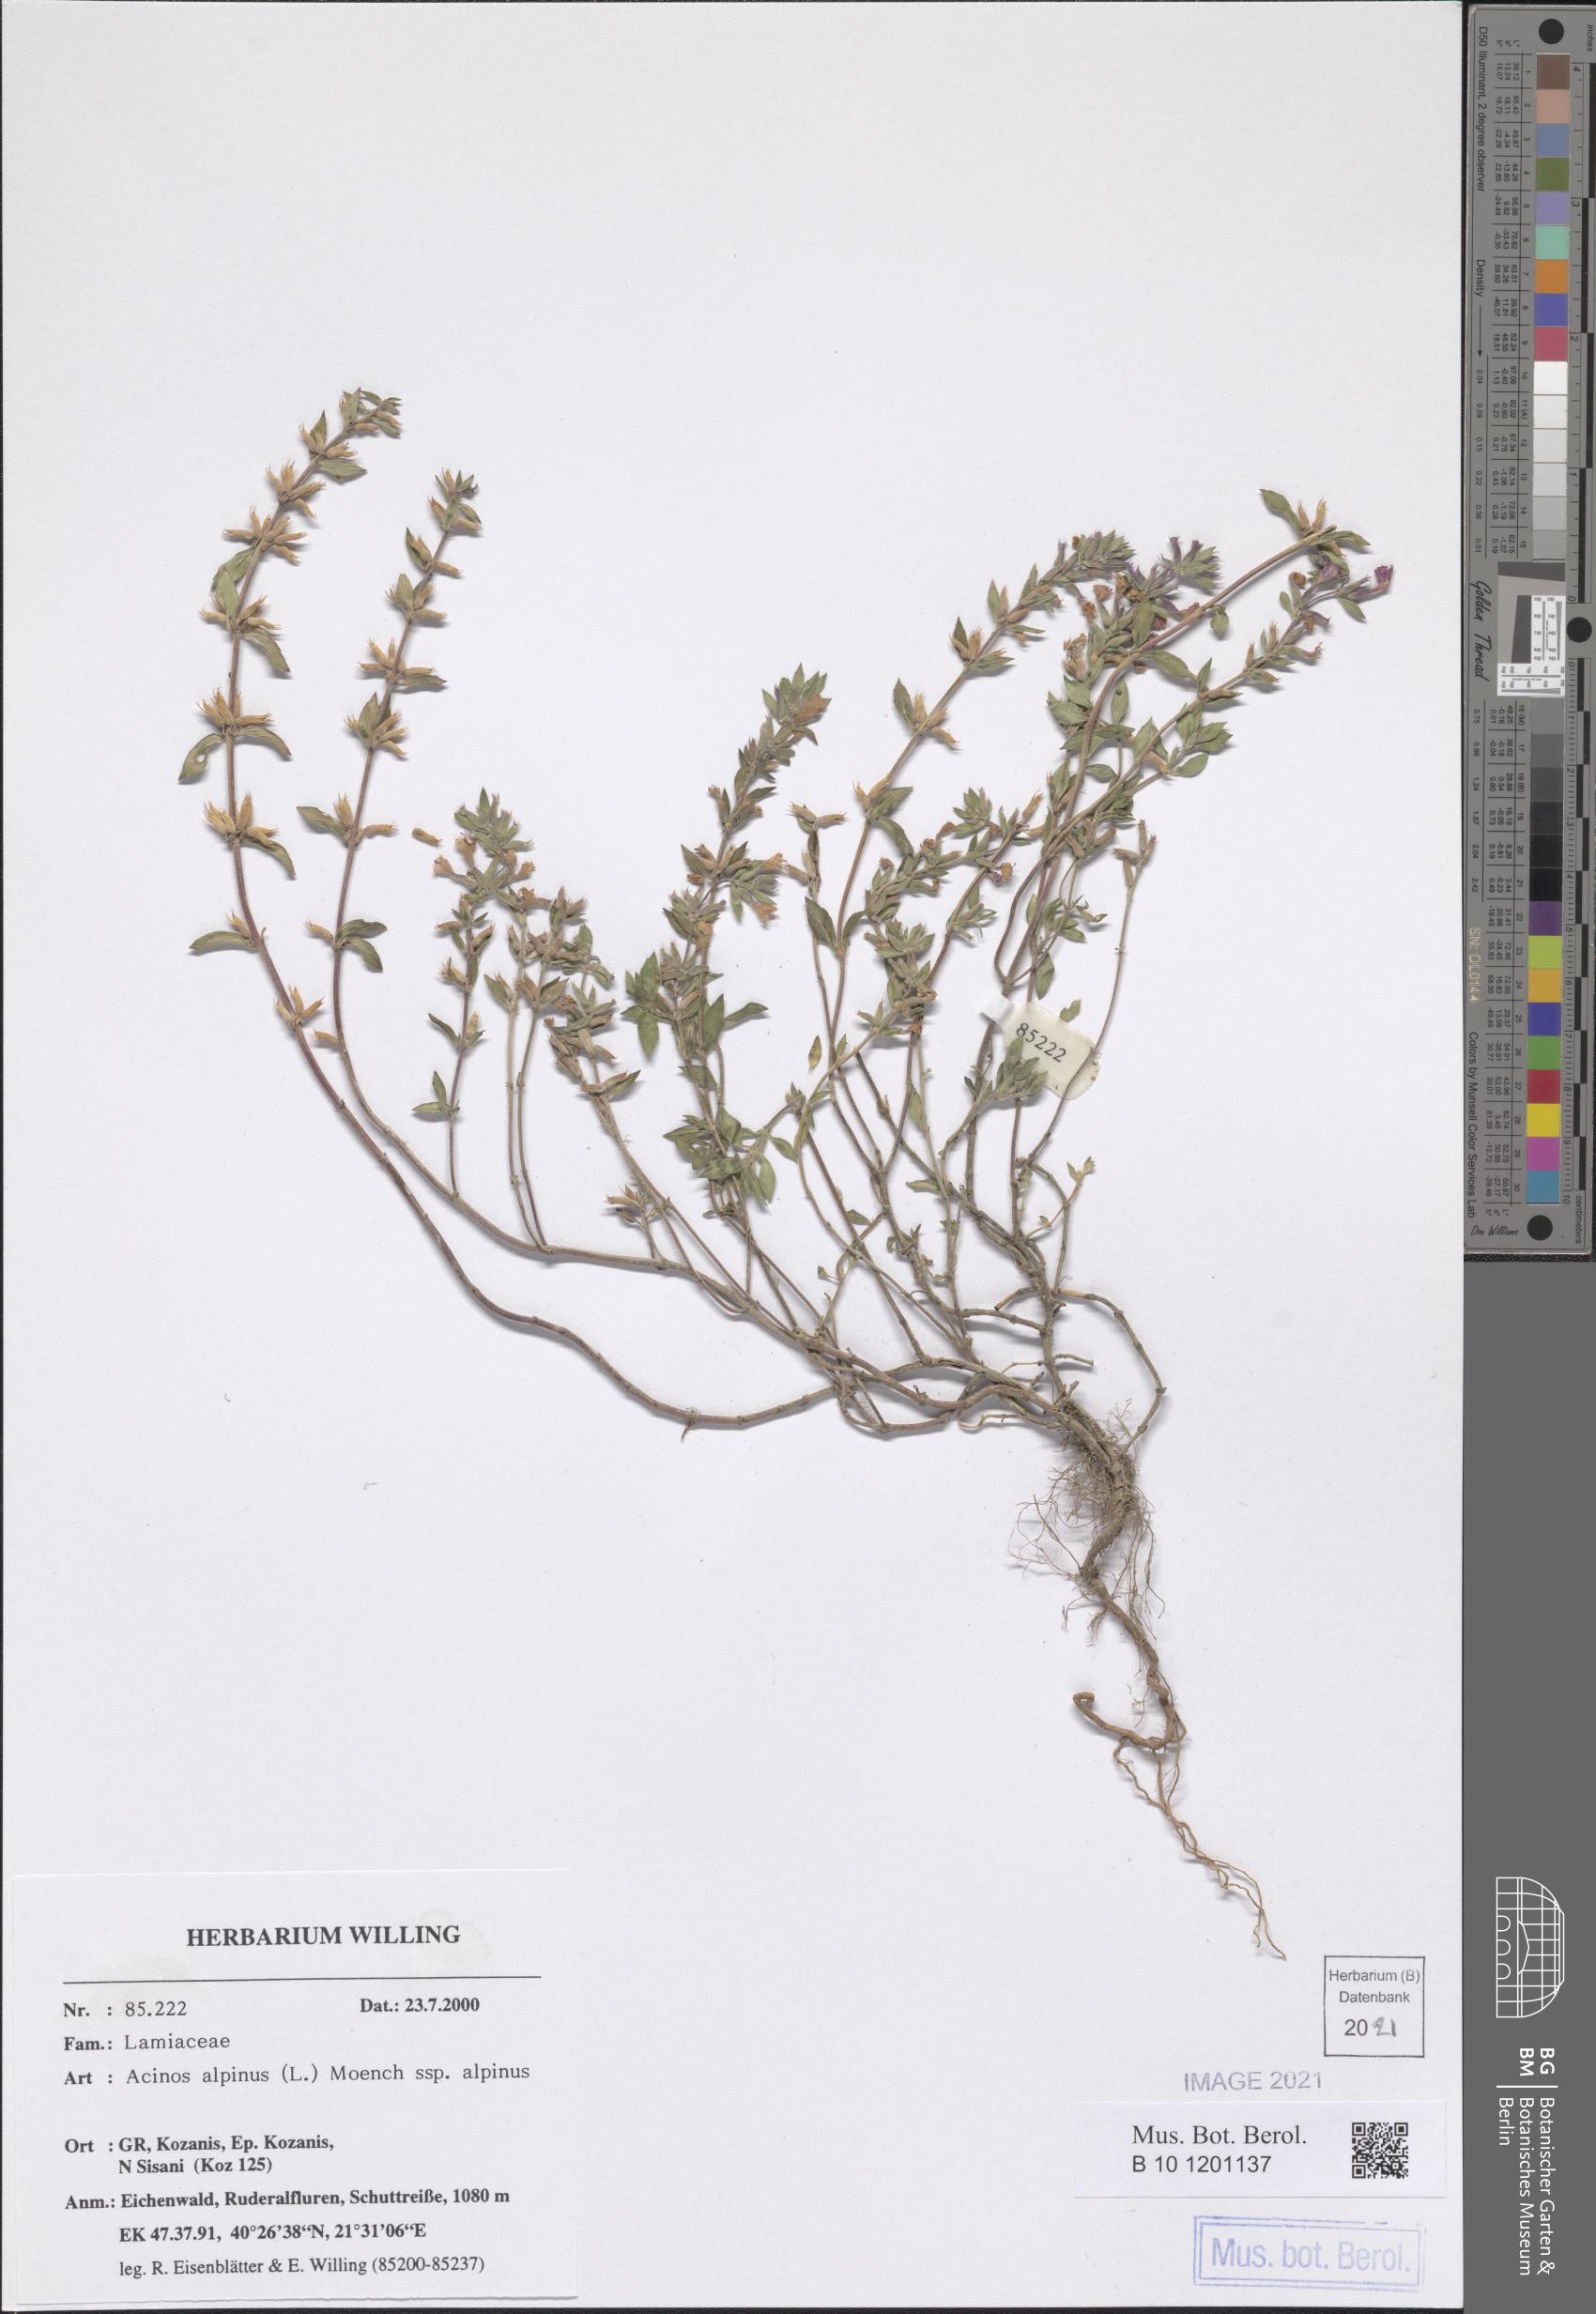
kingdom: Plantae
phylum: Tracheophyta
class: Magnoliopsida
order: Lamiales
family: Lamiaceae
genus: Clinopodium
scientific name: Clinopodium alpinum
